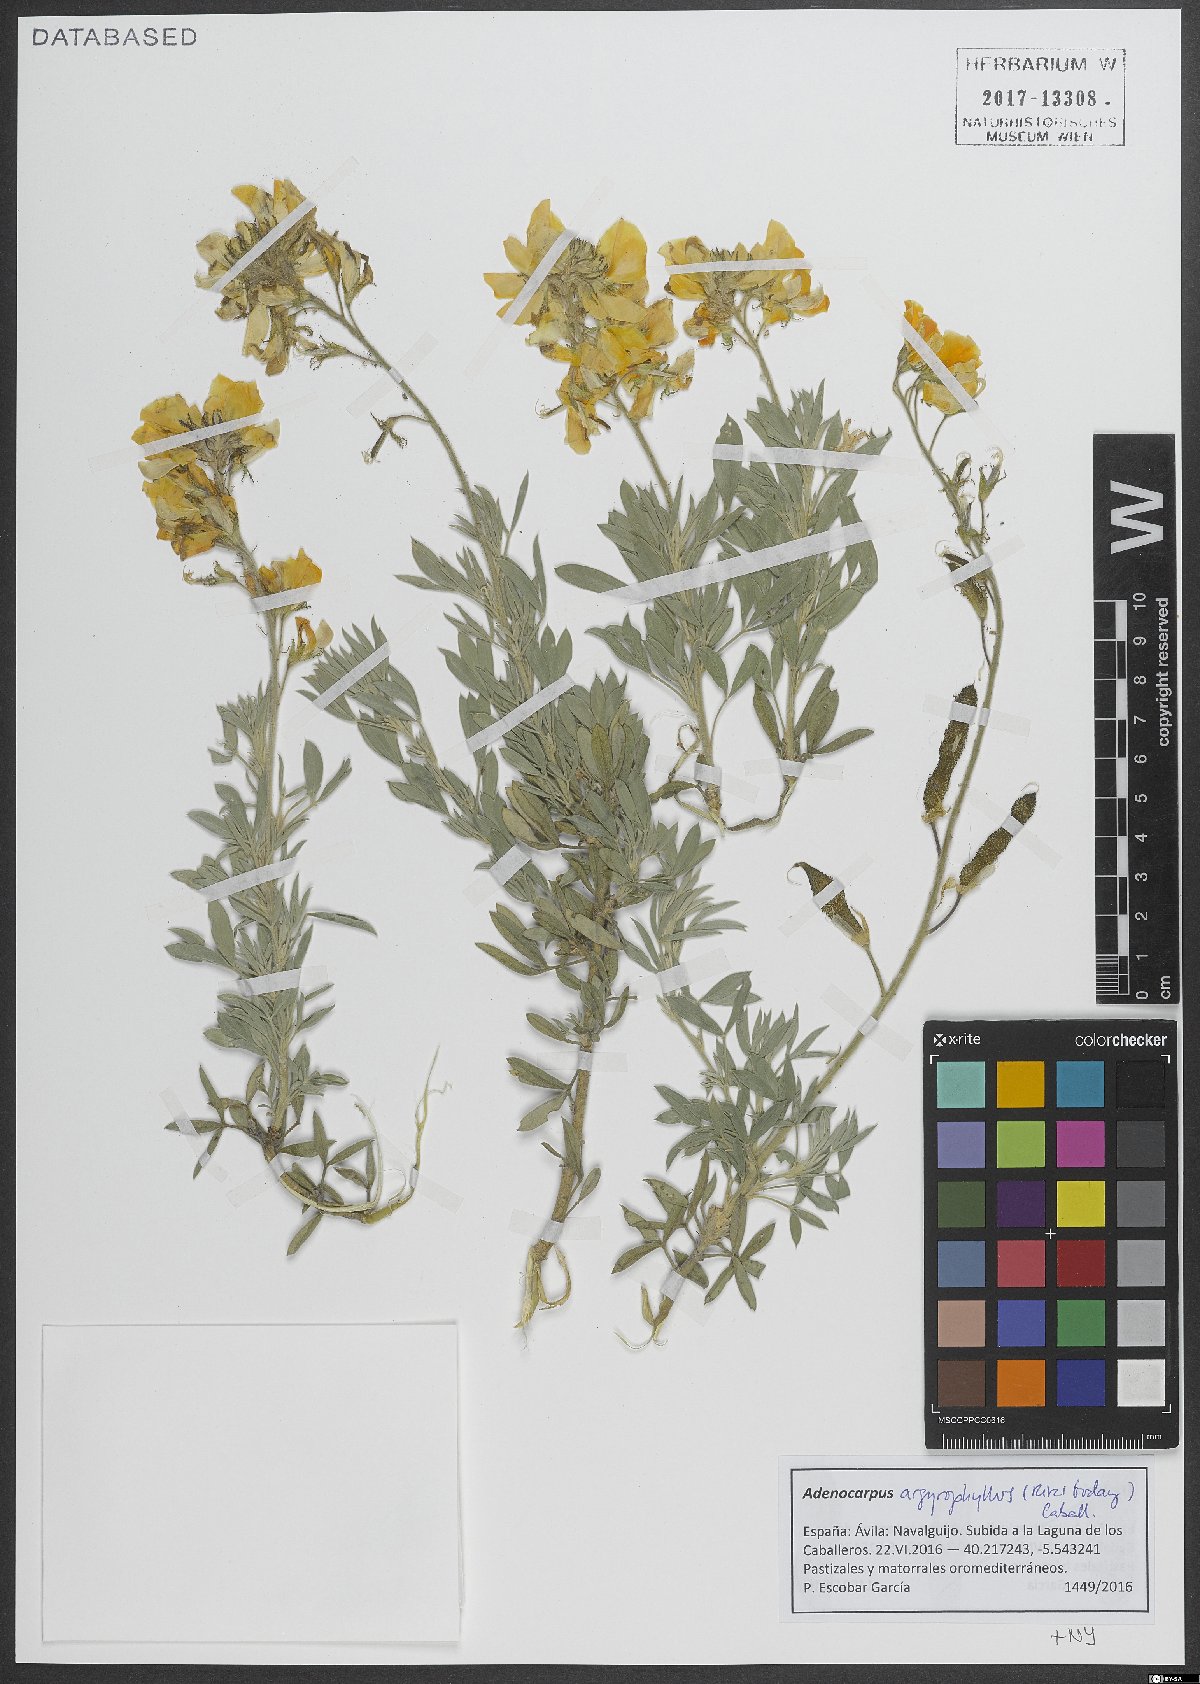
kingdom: Plantae
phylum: Tracheophyta
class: Magnoliopsida
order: Fabales
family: Fabaceae
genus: Adenocarpus
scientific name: Adenocarpus argyrophyllus
